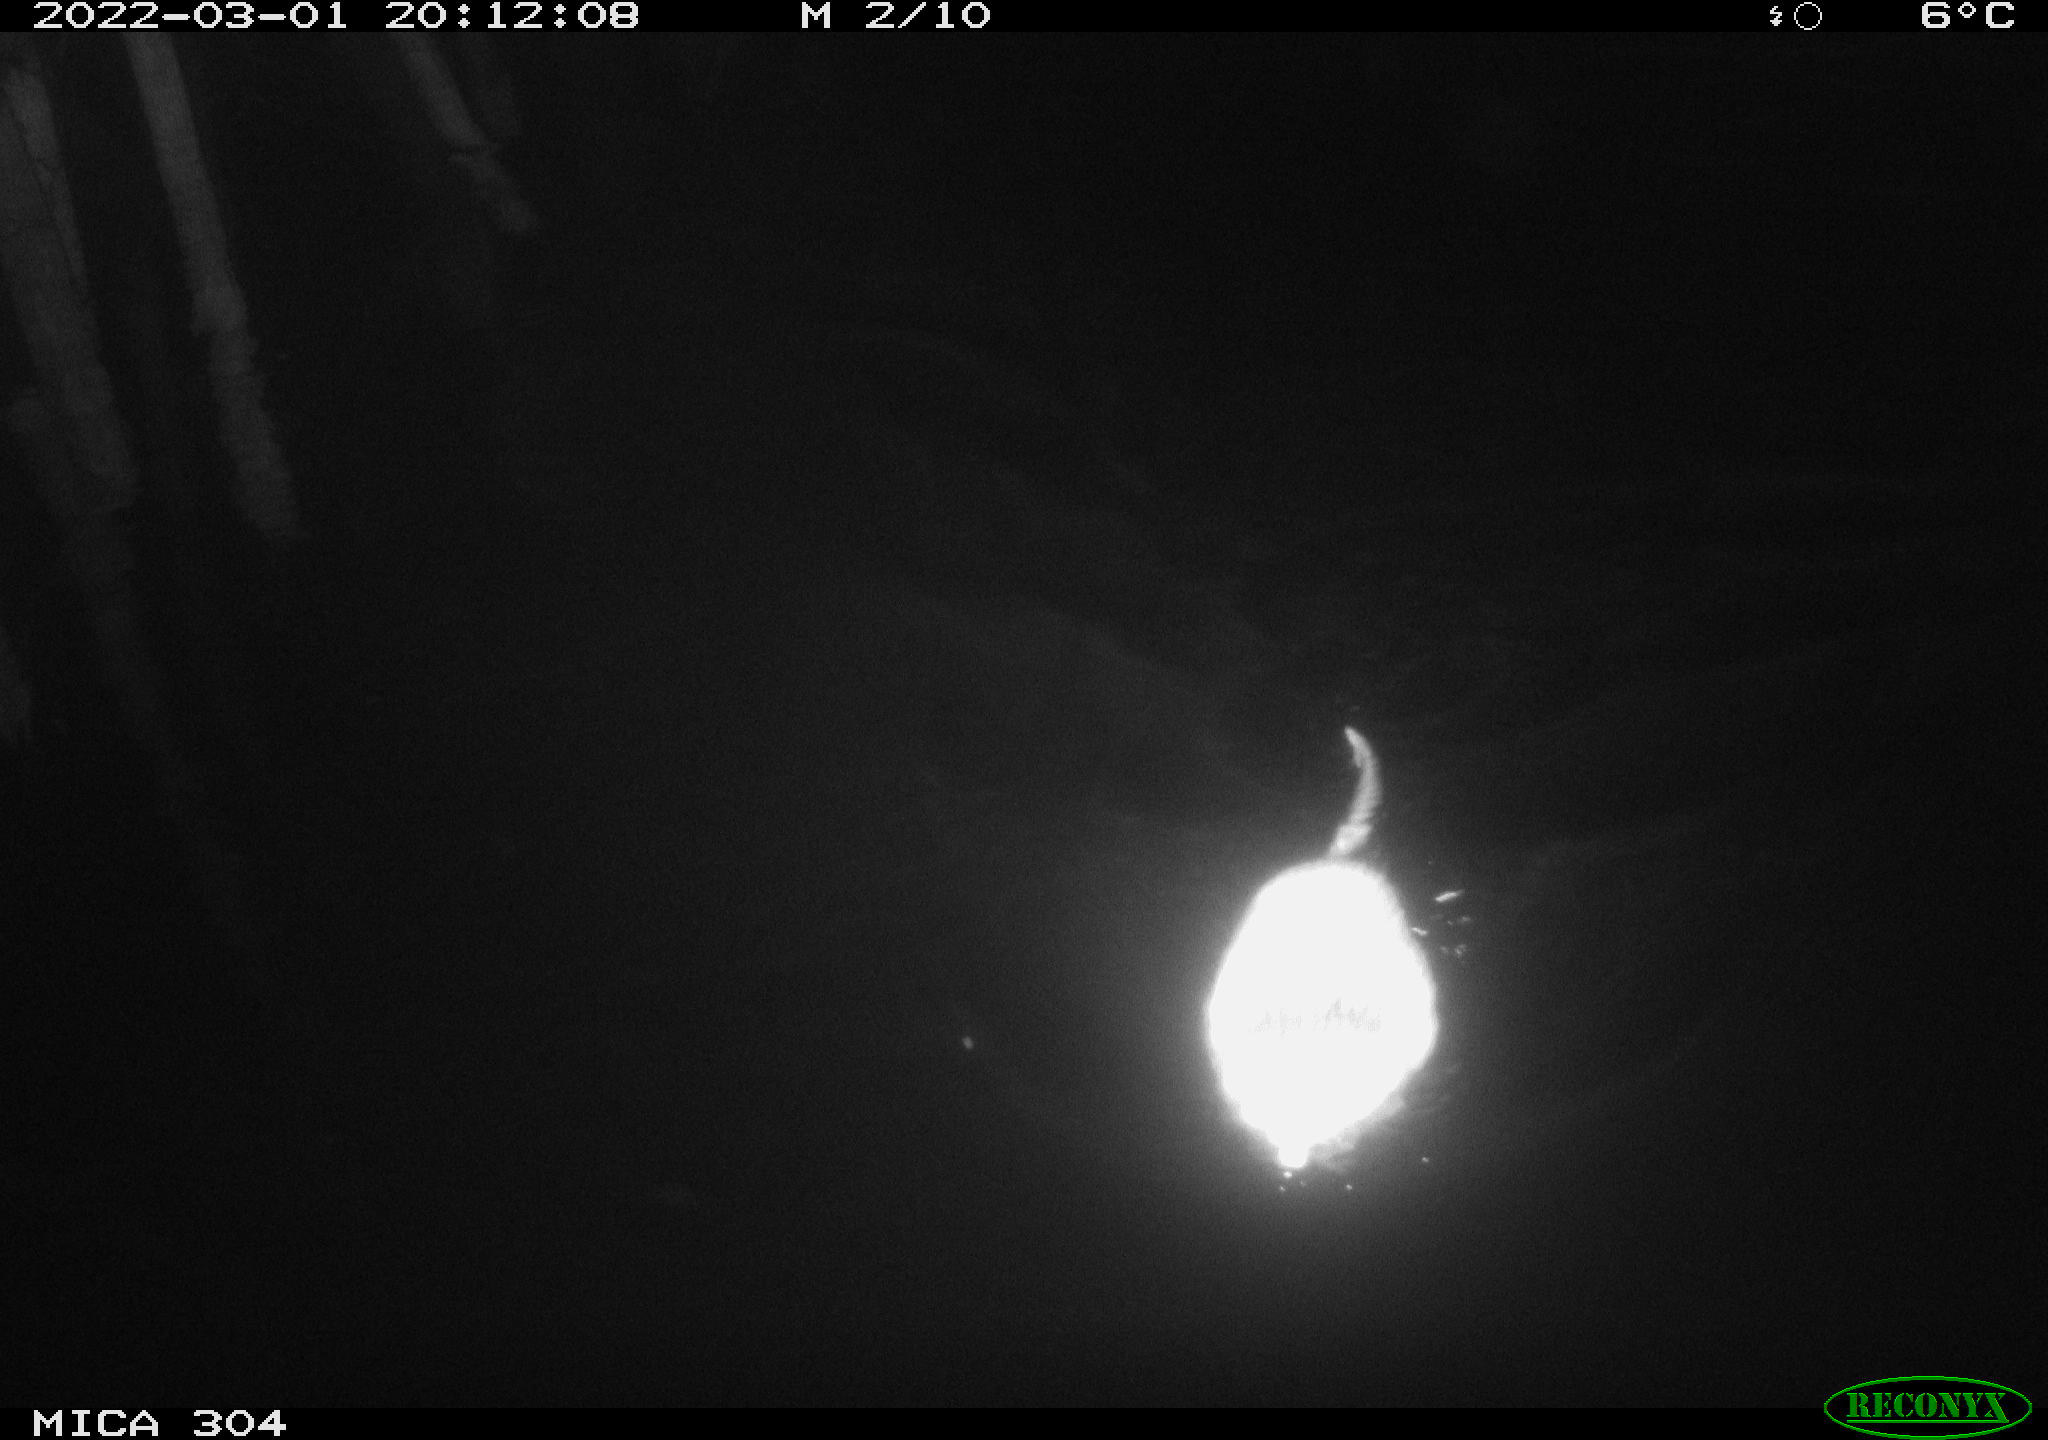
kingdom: Animalia
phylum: Chordata
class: Mammalia
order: Rodentia
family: Cricetidae
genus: Ondatra
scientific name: Ondatra zibethicus
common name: Muskrat
